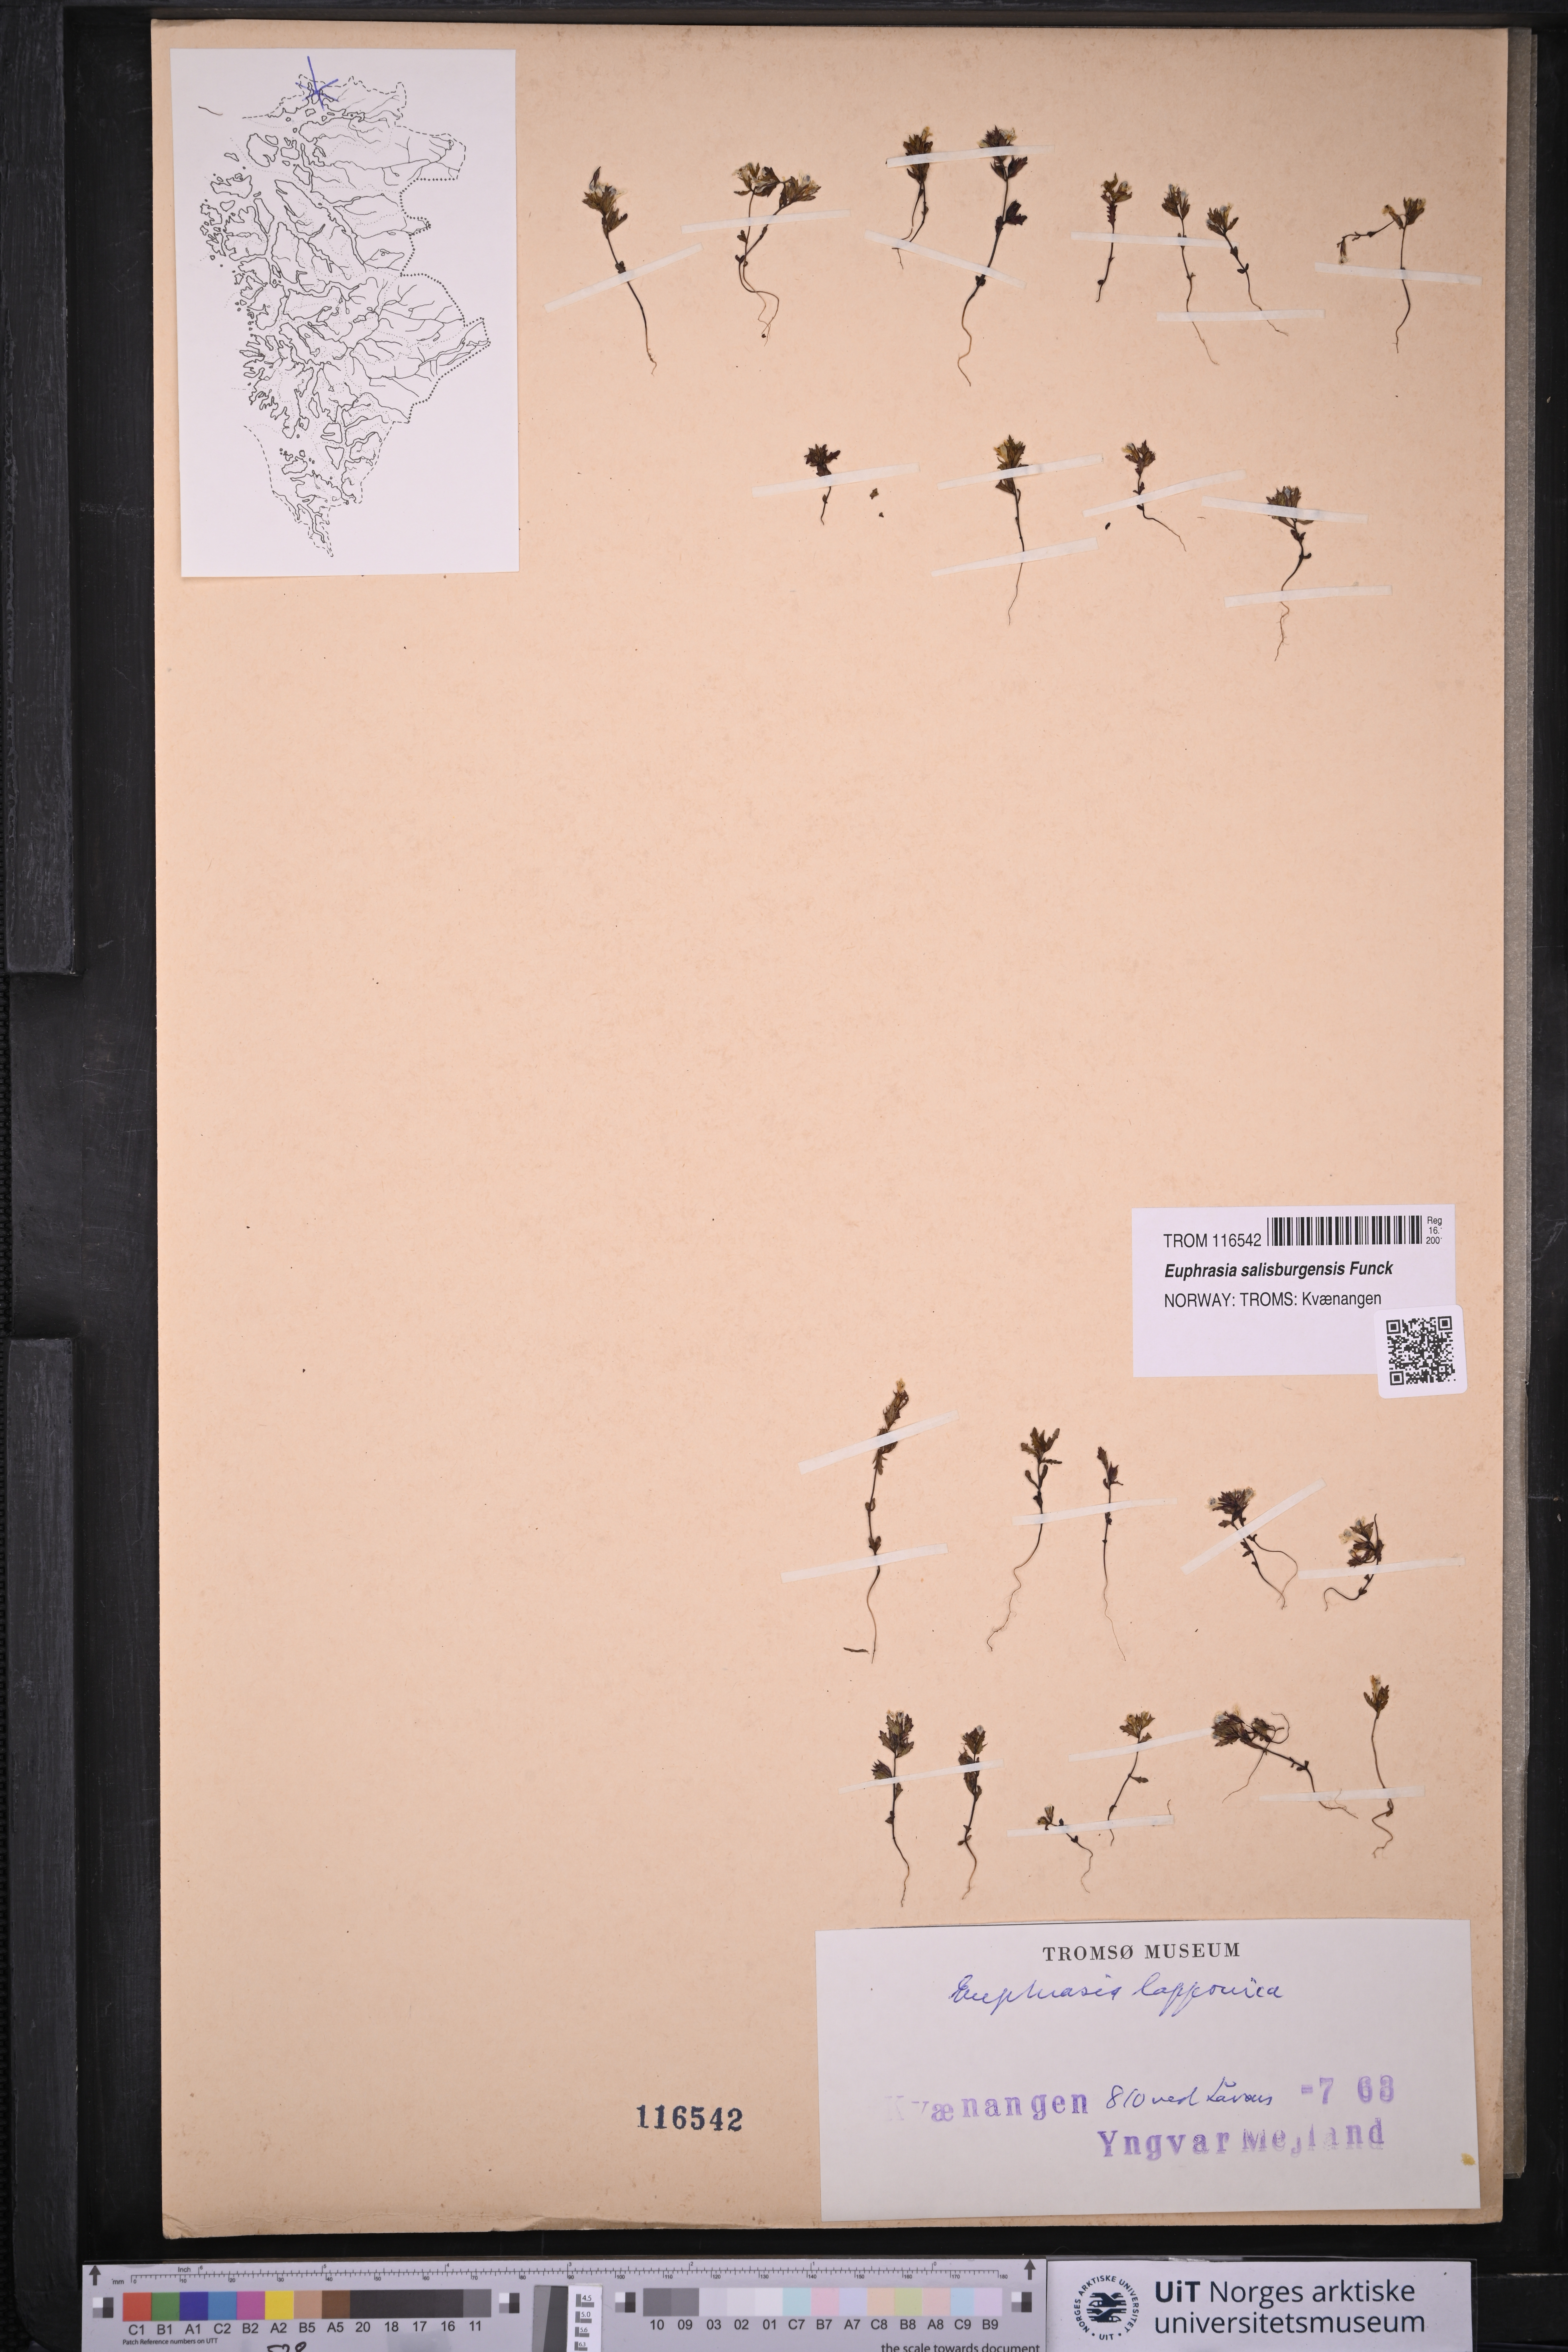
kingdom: Plantae
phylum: Tracheophyta
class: Magnoliopsida
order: Lamiales
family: Orobanchaceae
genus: Euphrasia
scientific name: Euphrasia salisburgensis
